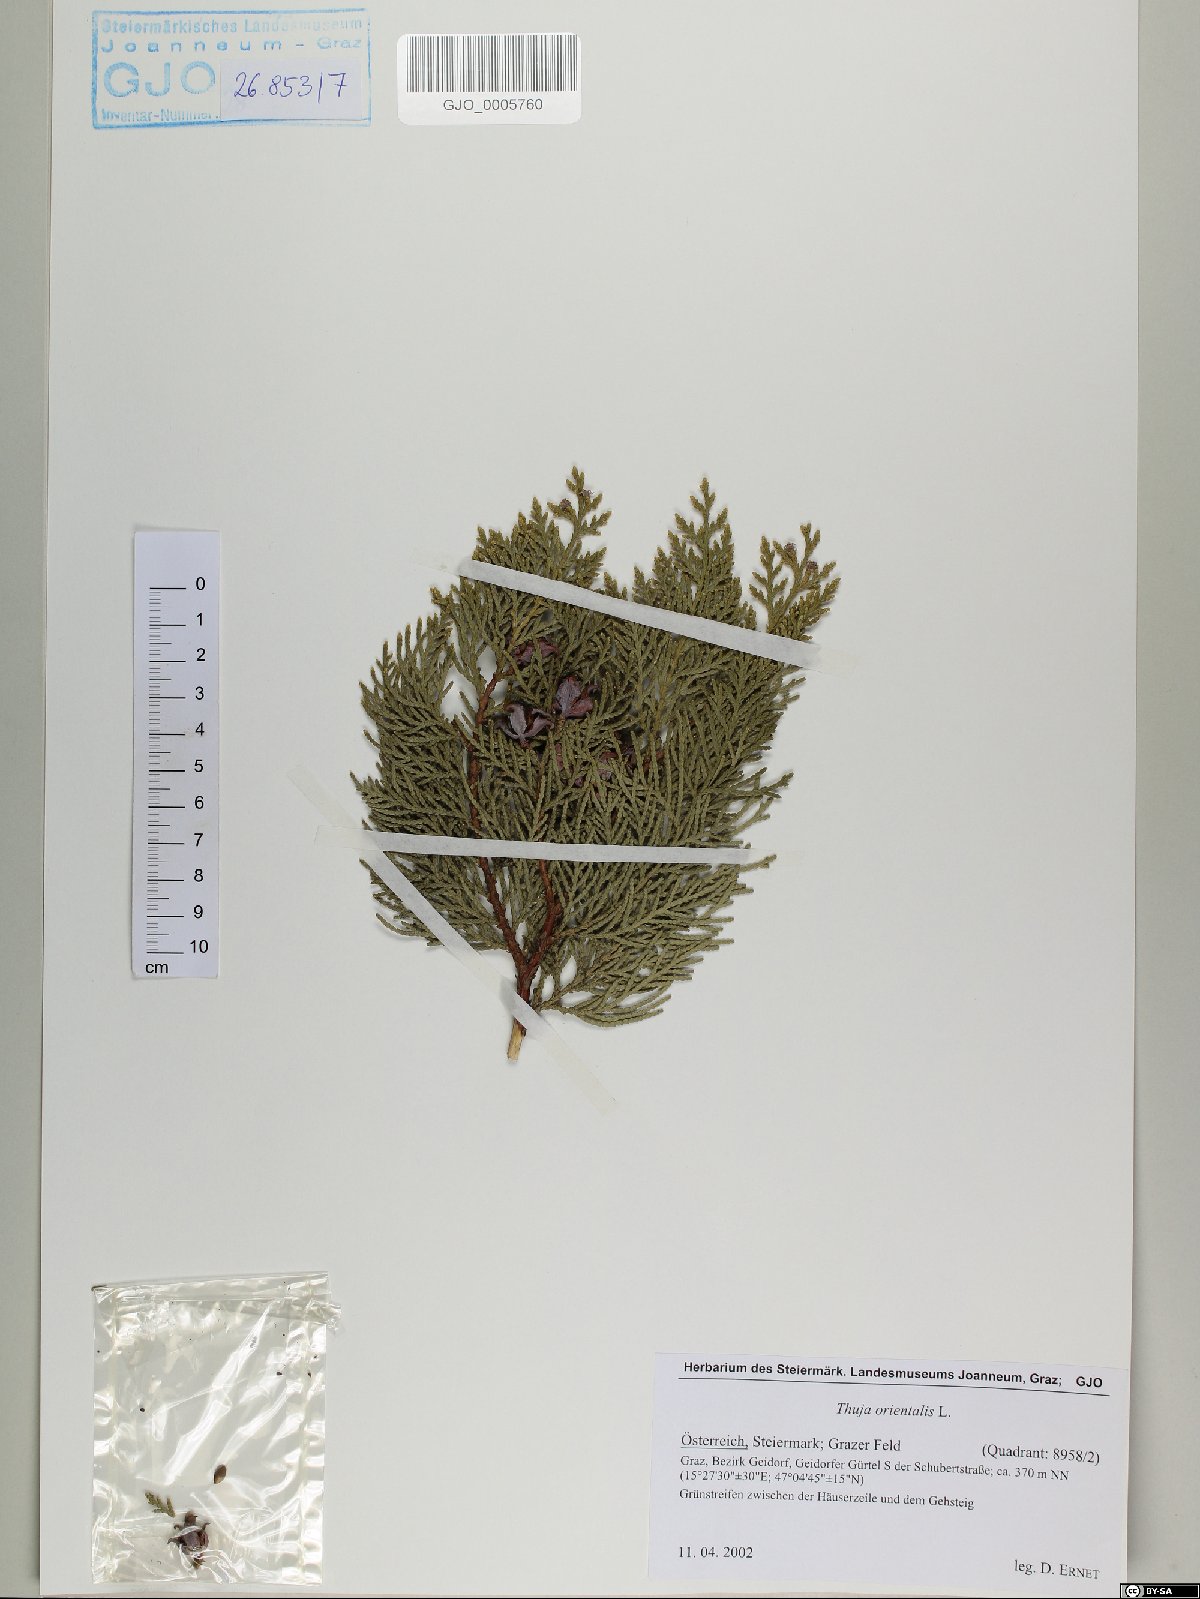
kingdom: Plantae
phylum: Tracheophyta
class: Pinopsida
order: Pinales
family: Cupressaceae
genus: Platycladus
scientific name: Platycladus orientalis
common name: Chinese thuja
